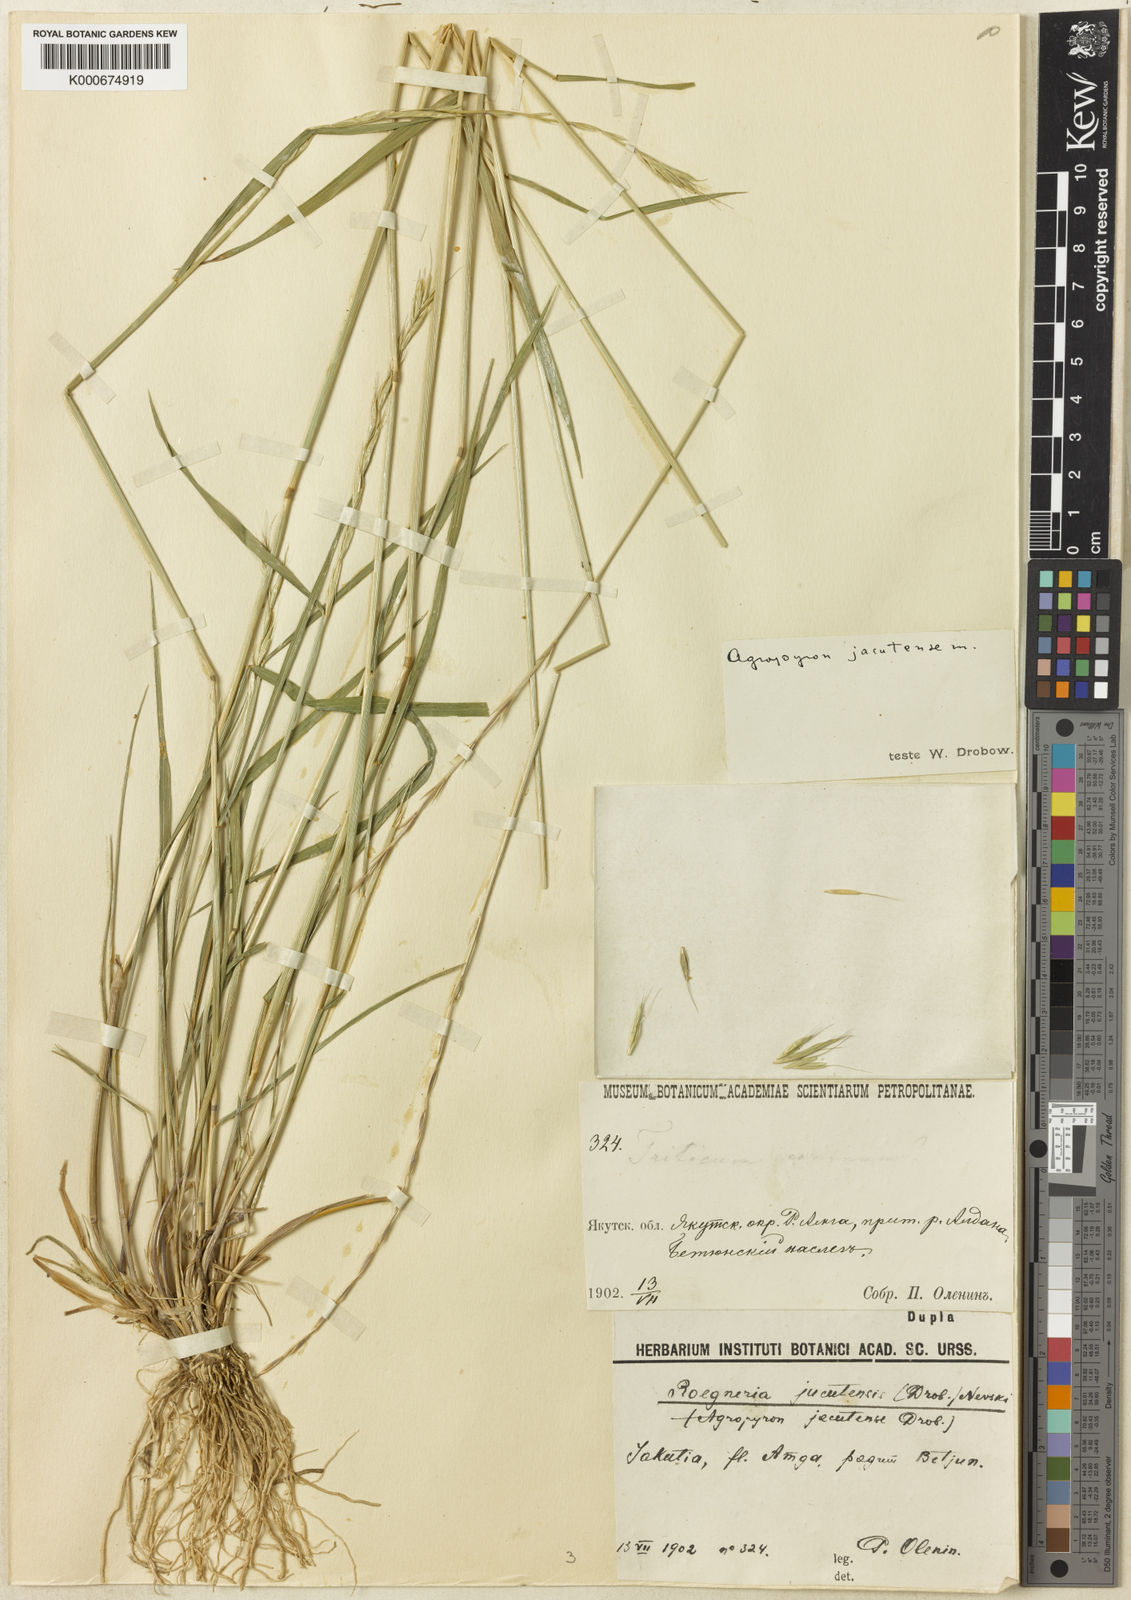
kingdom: Plantae
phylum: Tracheophyta
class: Liliopsida
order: Poales
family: Poaceae
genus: Elymus
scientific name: Elymus jacutensis
